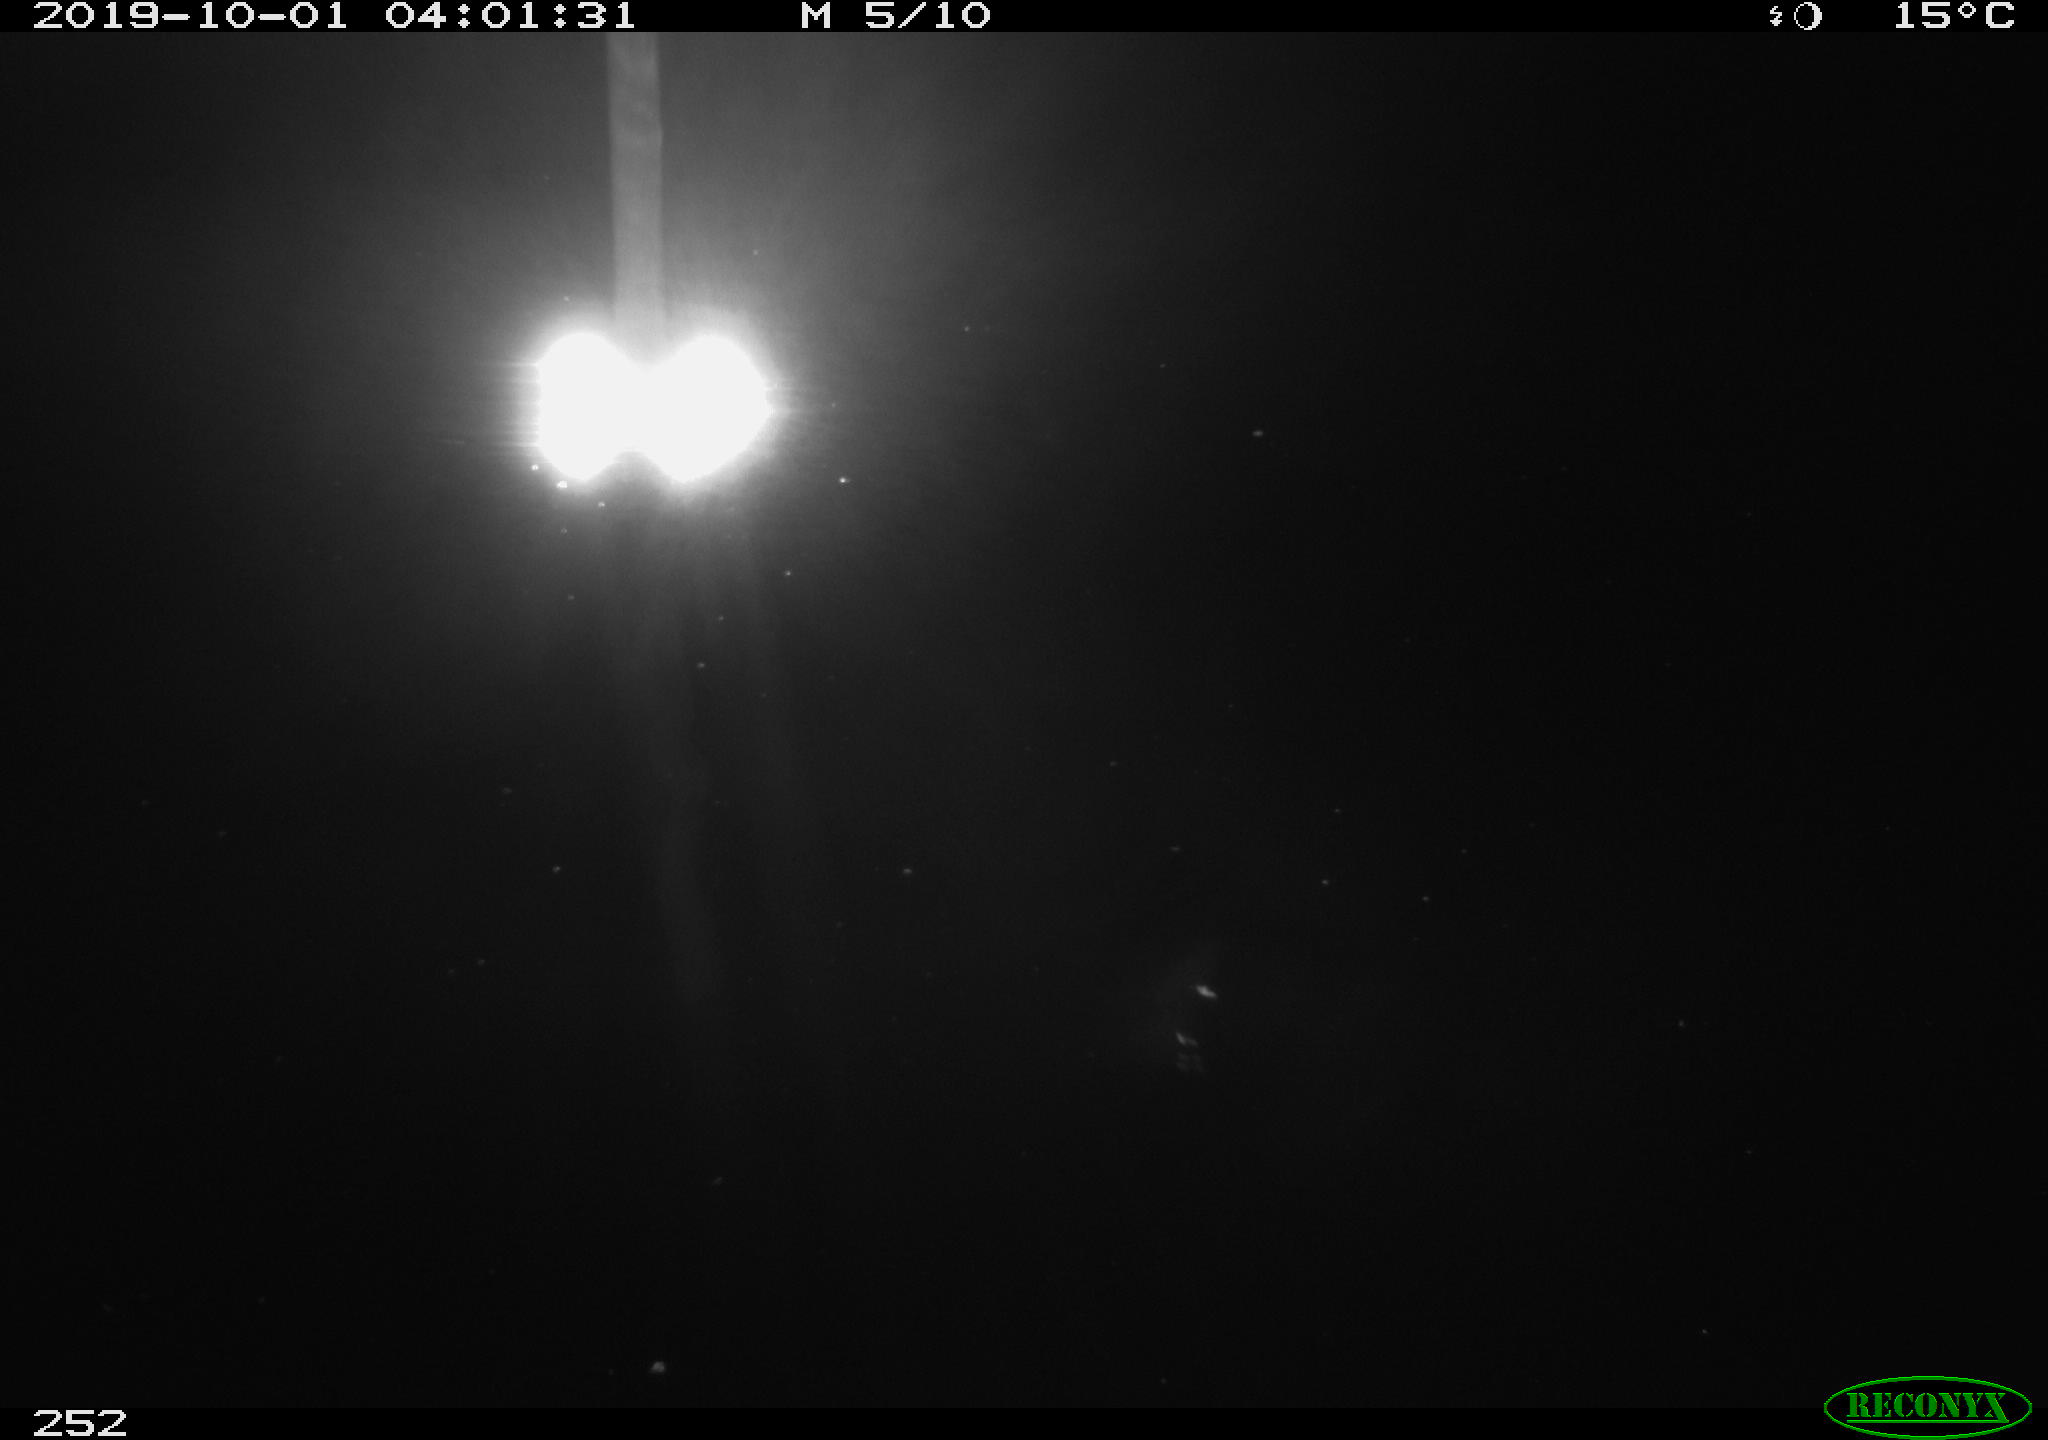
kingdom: Animalia
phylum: Chordata
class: Aves
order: Anseriformes
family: Anatidae
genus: Anas
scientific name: Anas platyrhynchos
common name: Mallard
